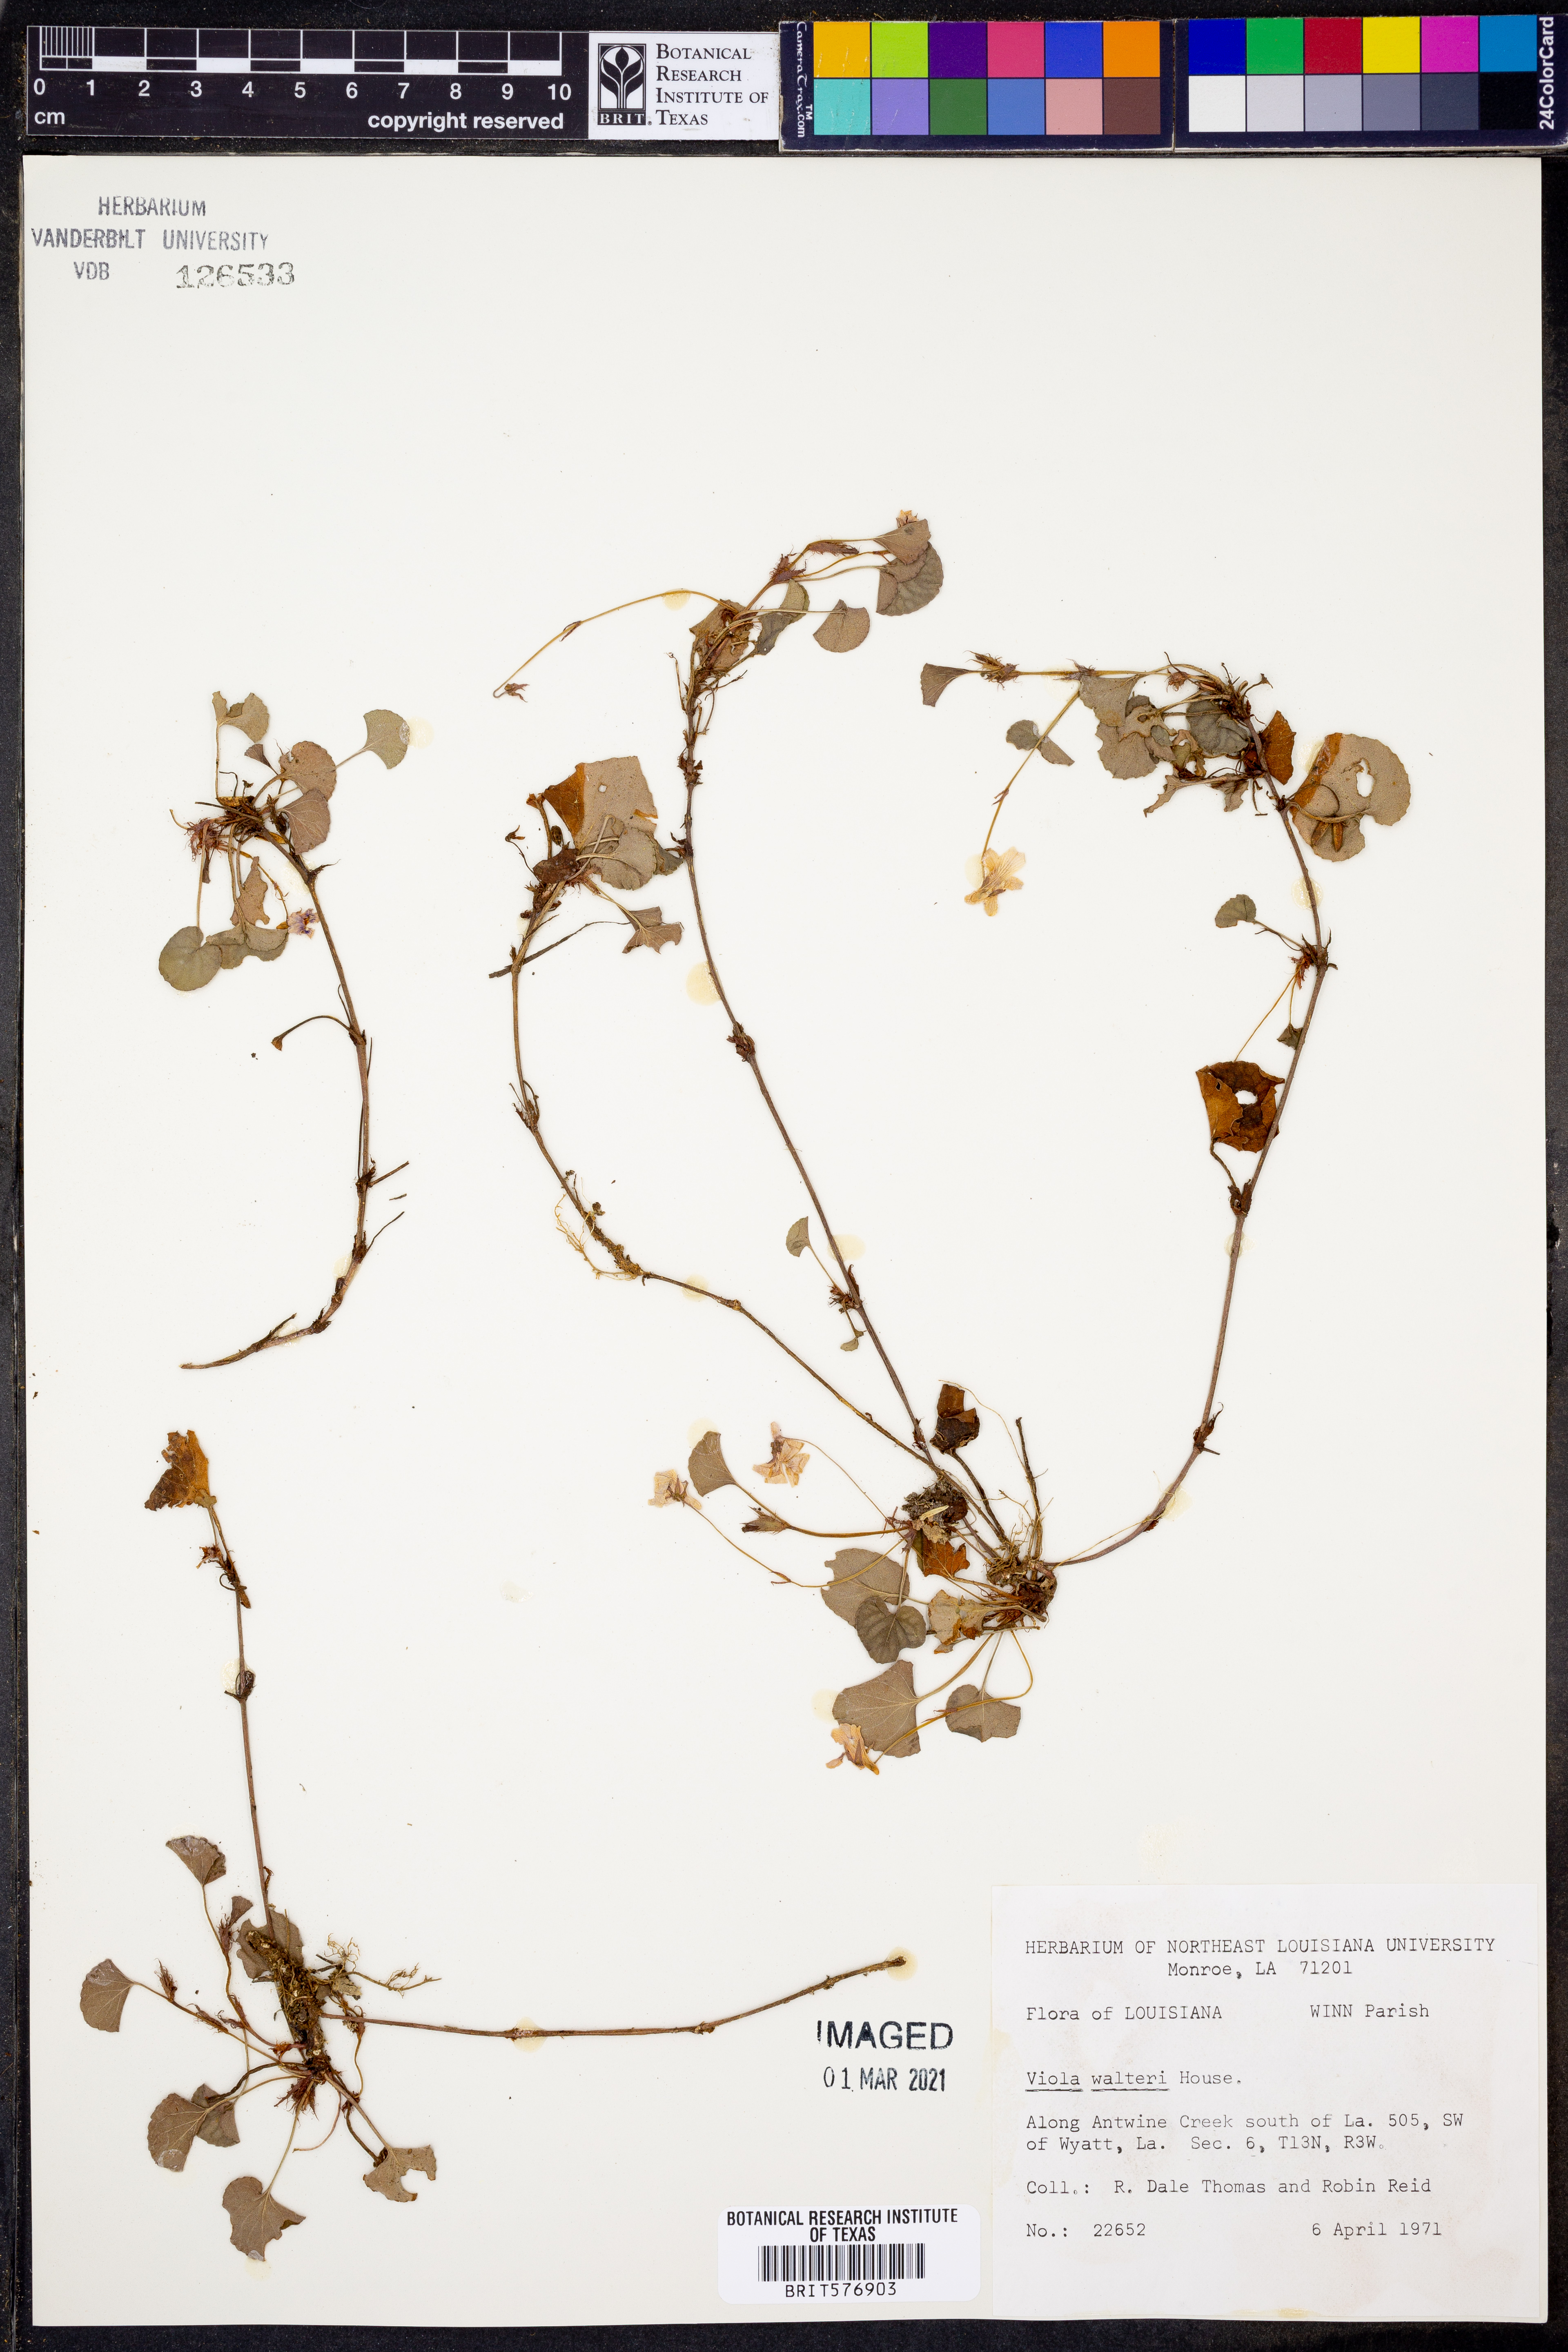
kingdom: Plantae
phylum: Tracheophyta
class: Magnoliopsida
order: Malpighiales
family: Violaceae
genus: Viola
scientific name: Viola walteri
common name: Prostrate southern violet
